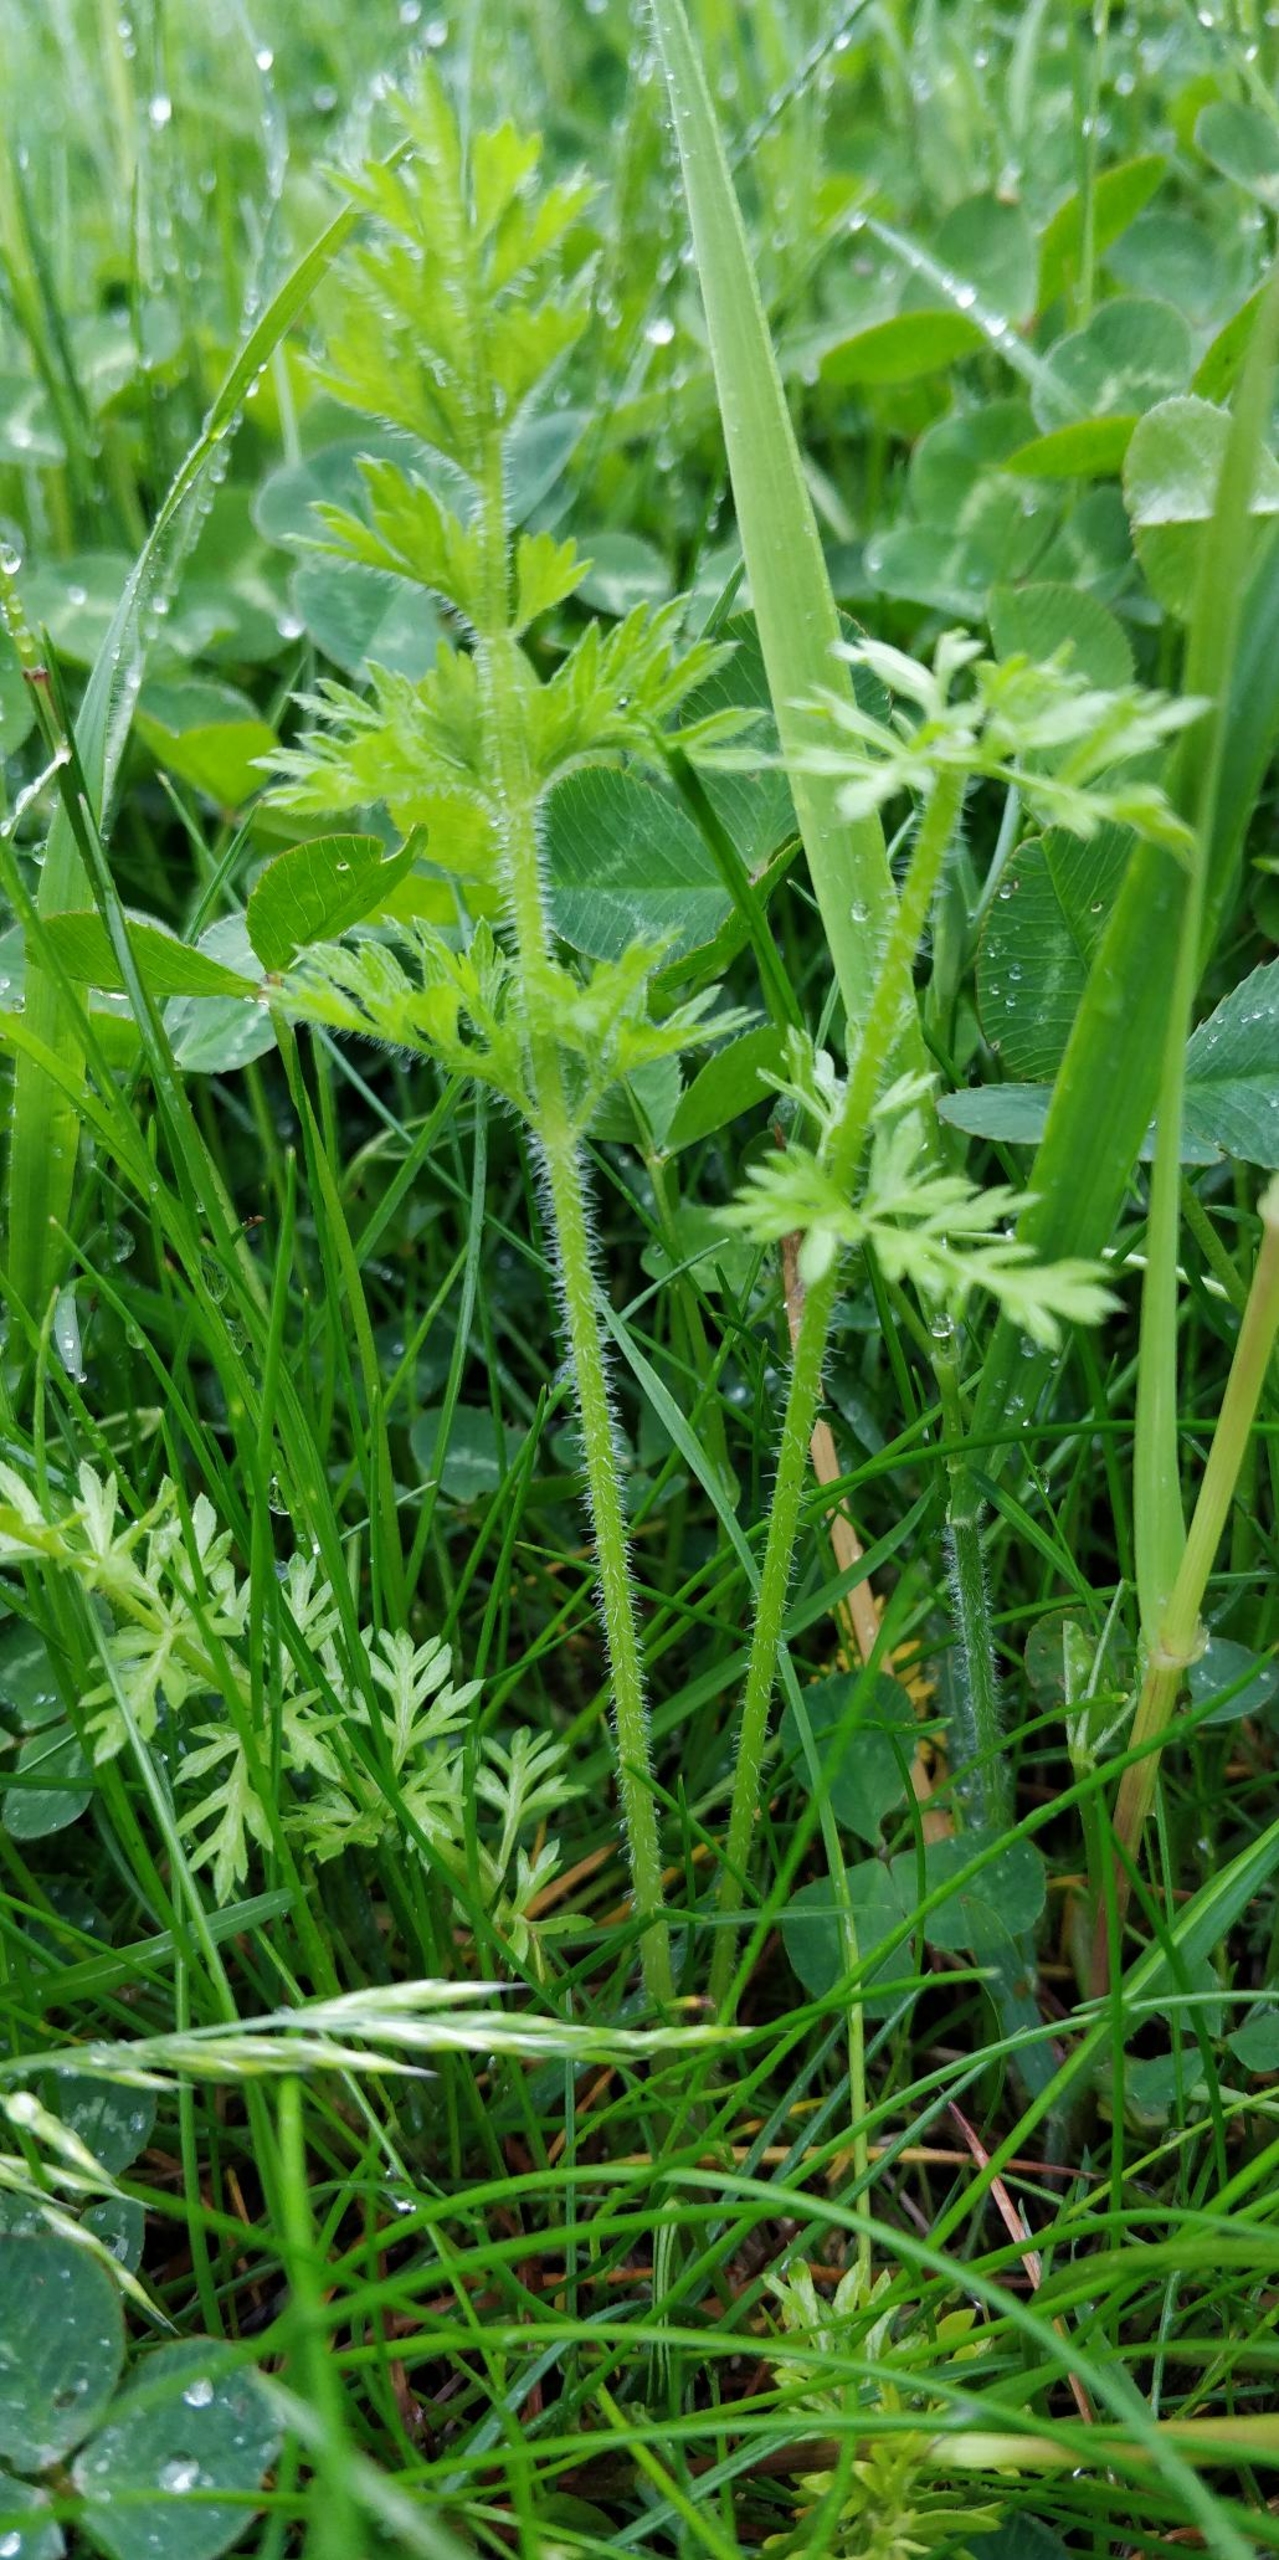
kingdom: Plantae
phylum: Tracheophyta
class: Magnoliopsida
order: Apiales
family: Apiaceae
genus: Daucus
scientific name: Daucus carota
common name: Vild gulerod
